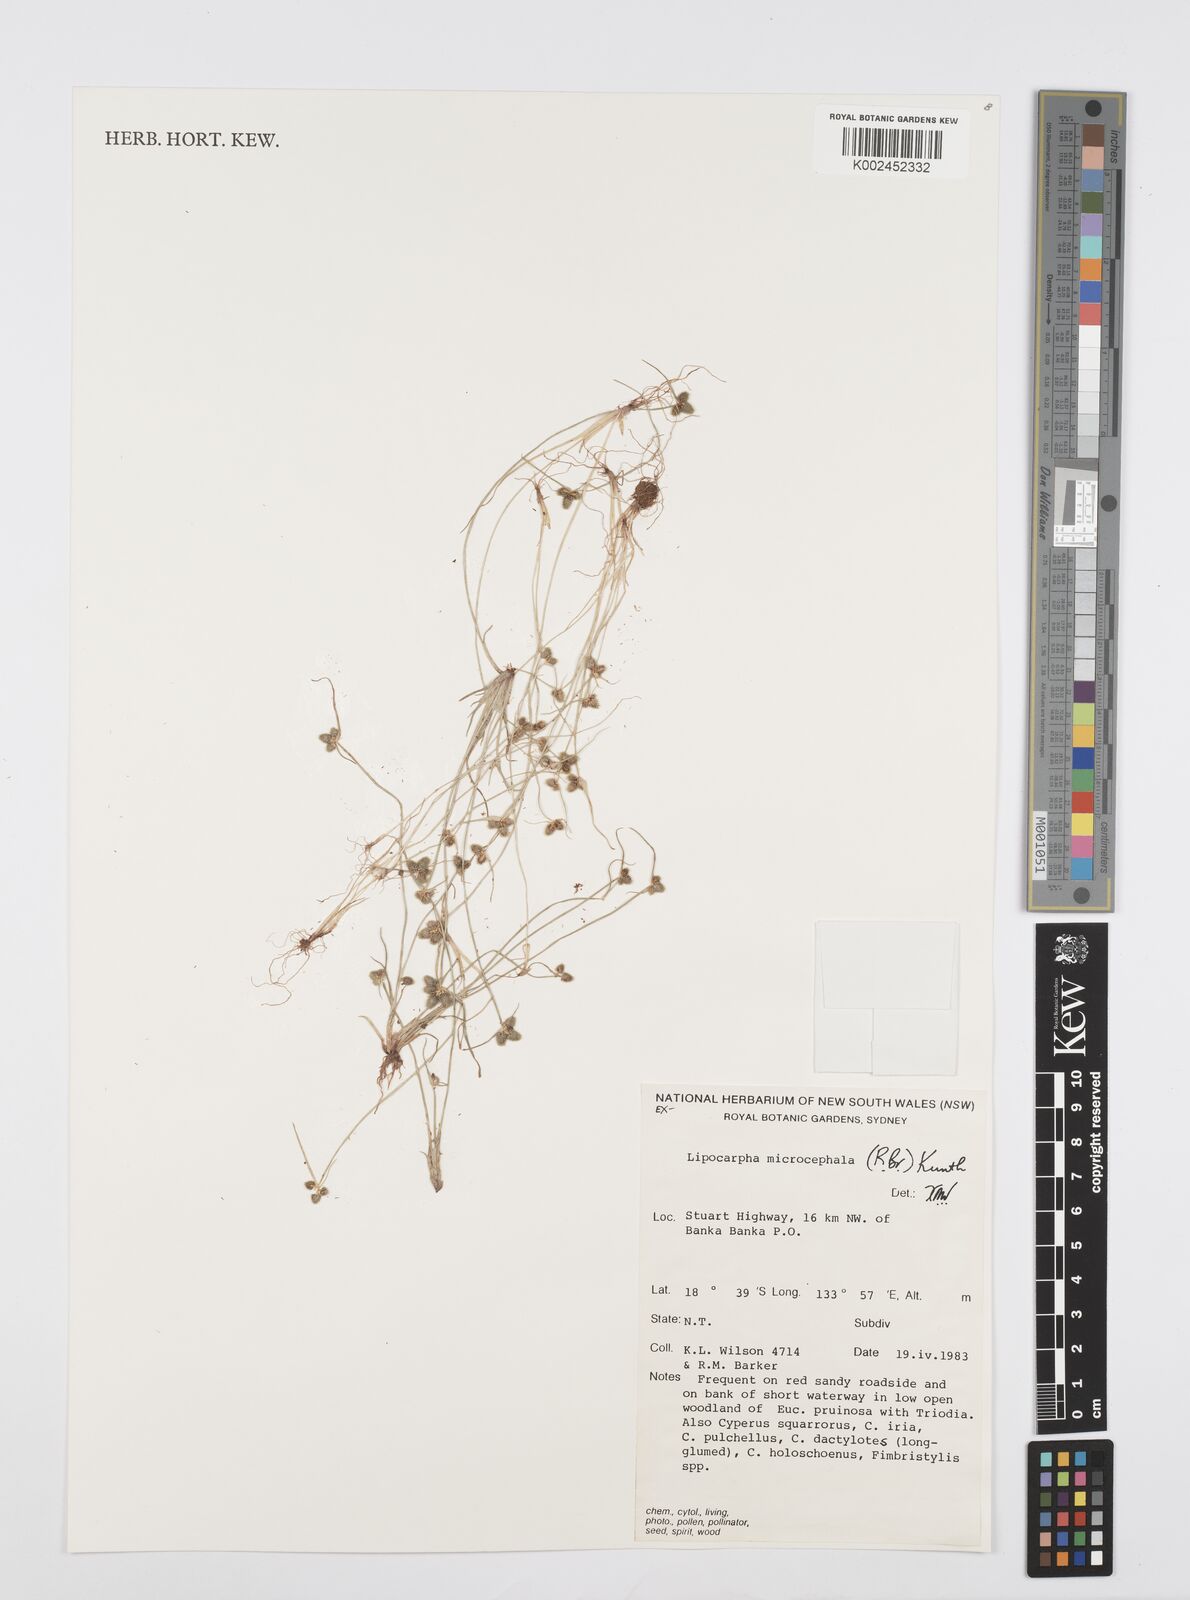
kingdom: Plantae
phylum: Tracheophyta
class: Liliopsida
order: Poales
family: Cyperaceae
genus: Cyperus
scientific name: Cyperus
